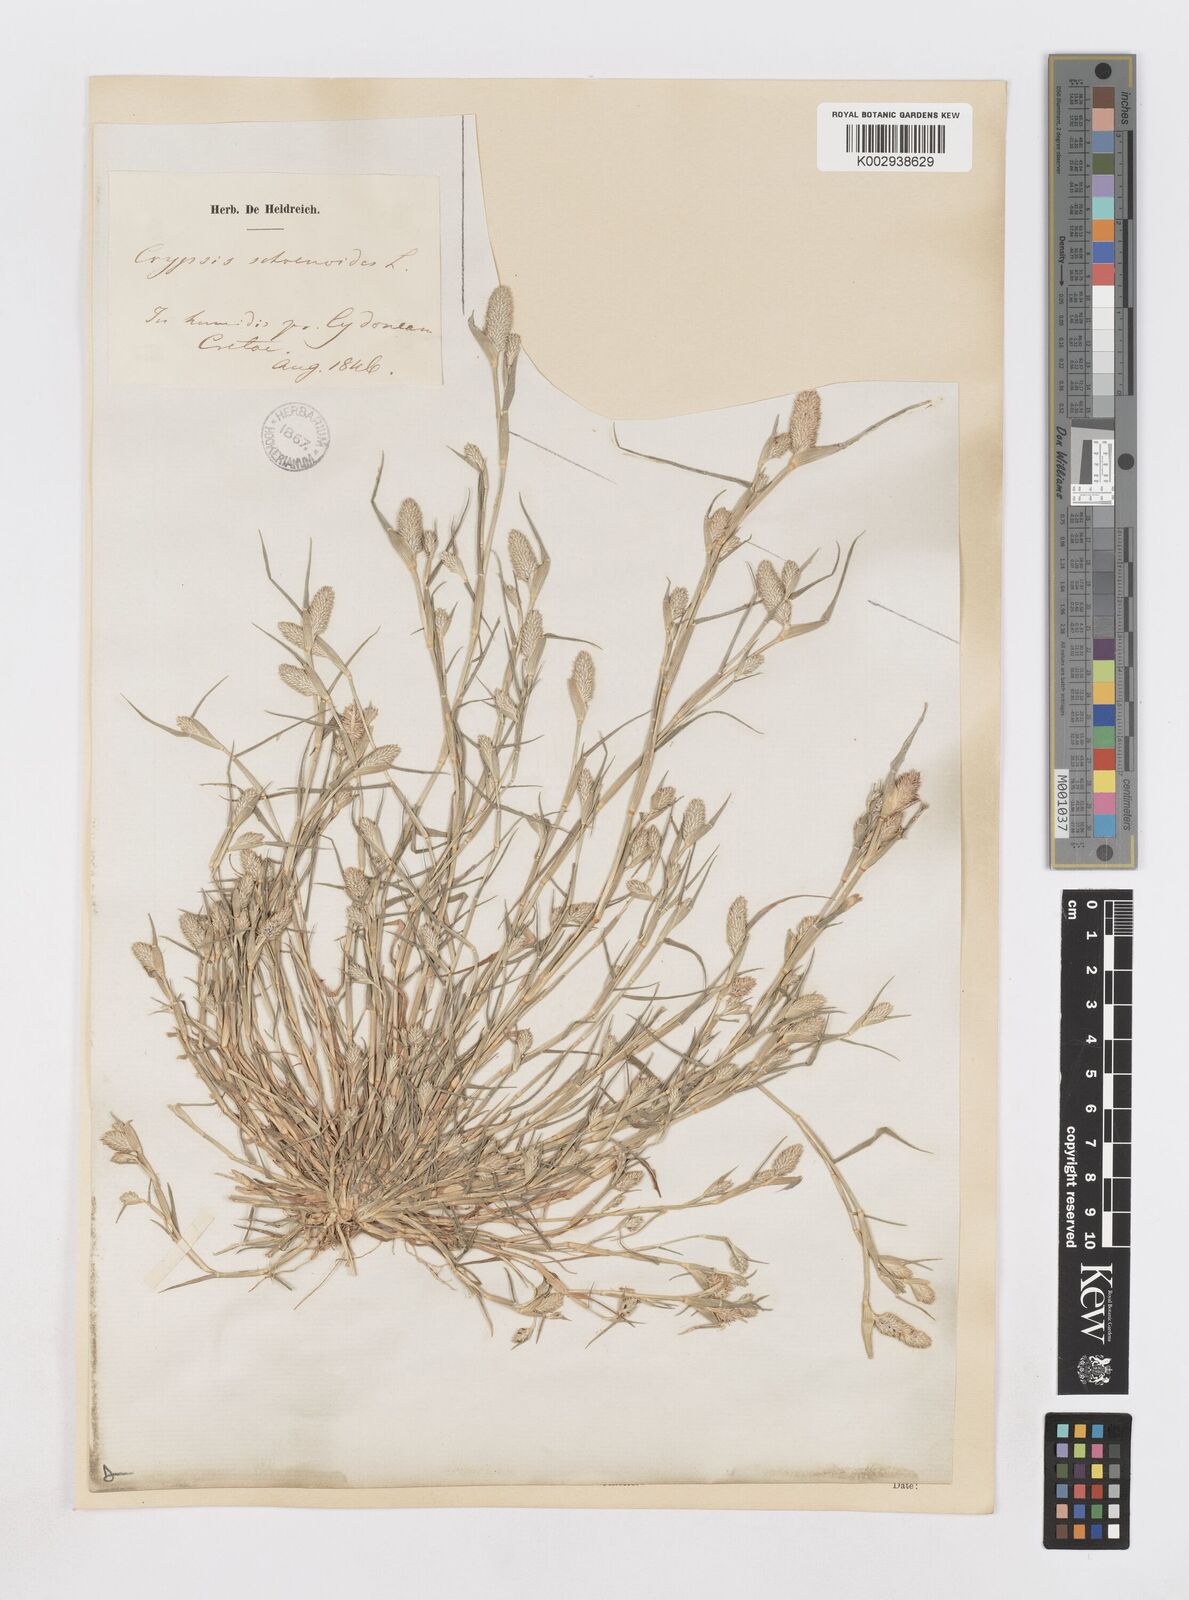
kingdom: Plantae
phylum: Tracheophyta
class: Liliopsida
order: Poales
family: Poaceae
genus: Sporobolus
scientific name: Sporobolus schoenoides
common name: Rush-like timothy
